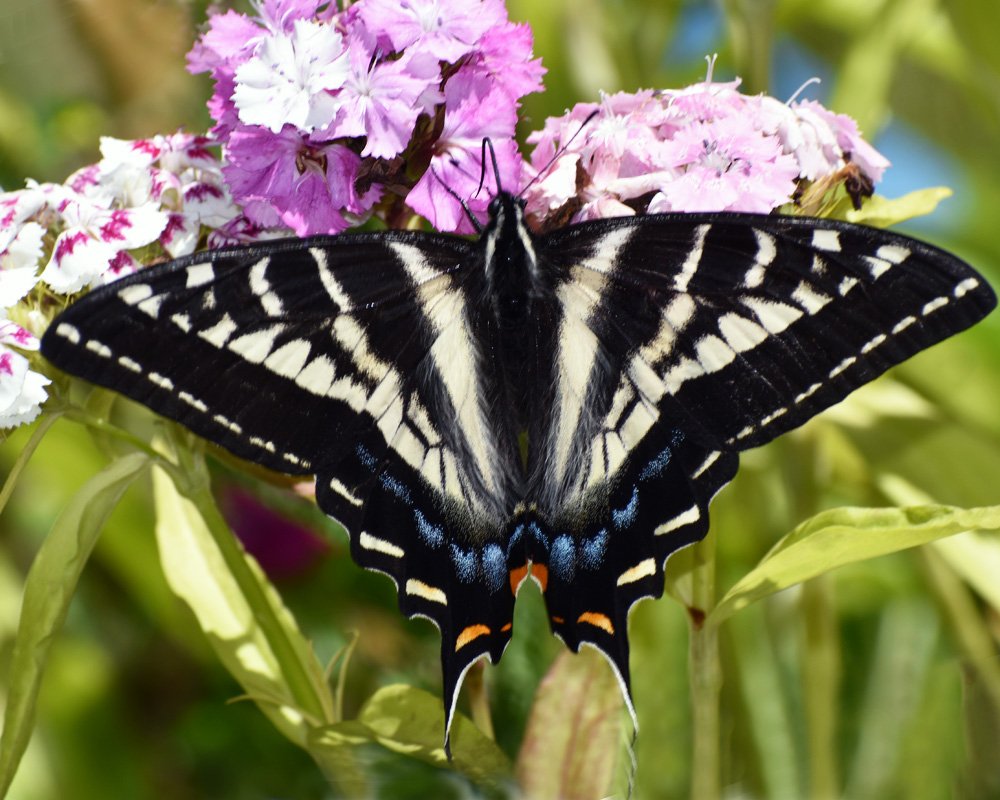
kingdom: Animalia
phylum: Arthropoda
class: Insecta
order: Lepidoptera
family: Papilionidae
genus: Pterourus
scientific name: Pterourus eurymedon
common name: Pale Swallowtail
